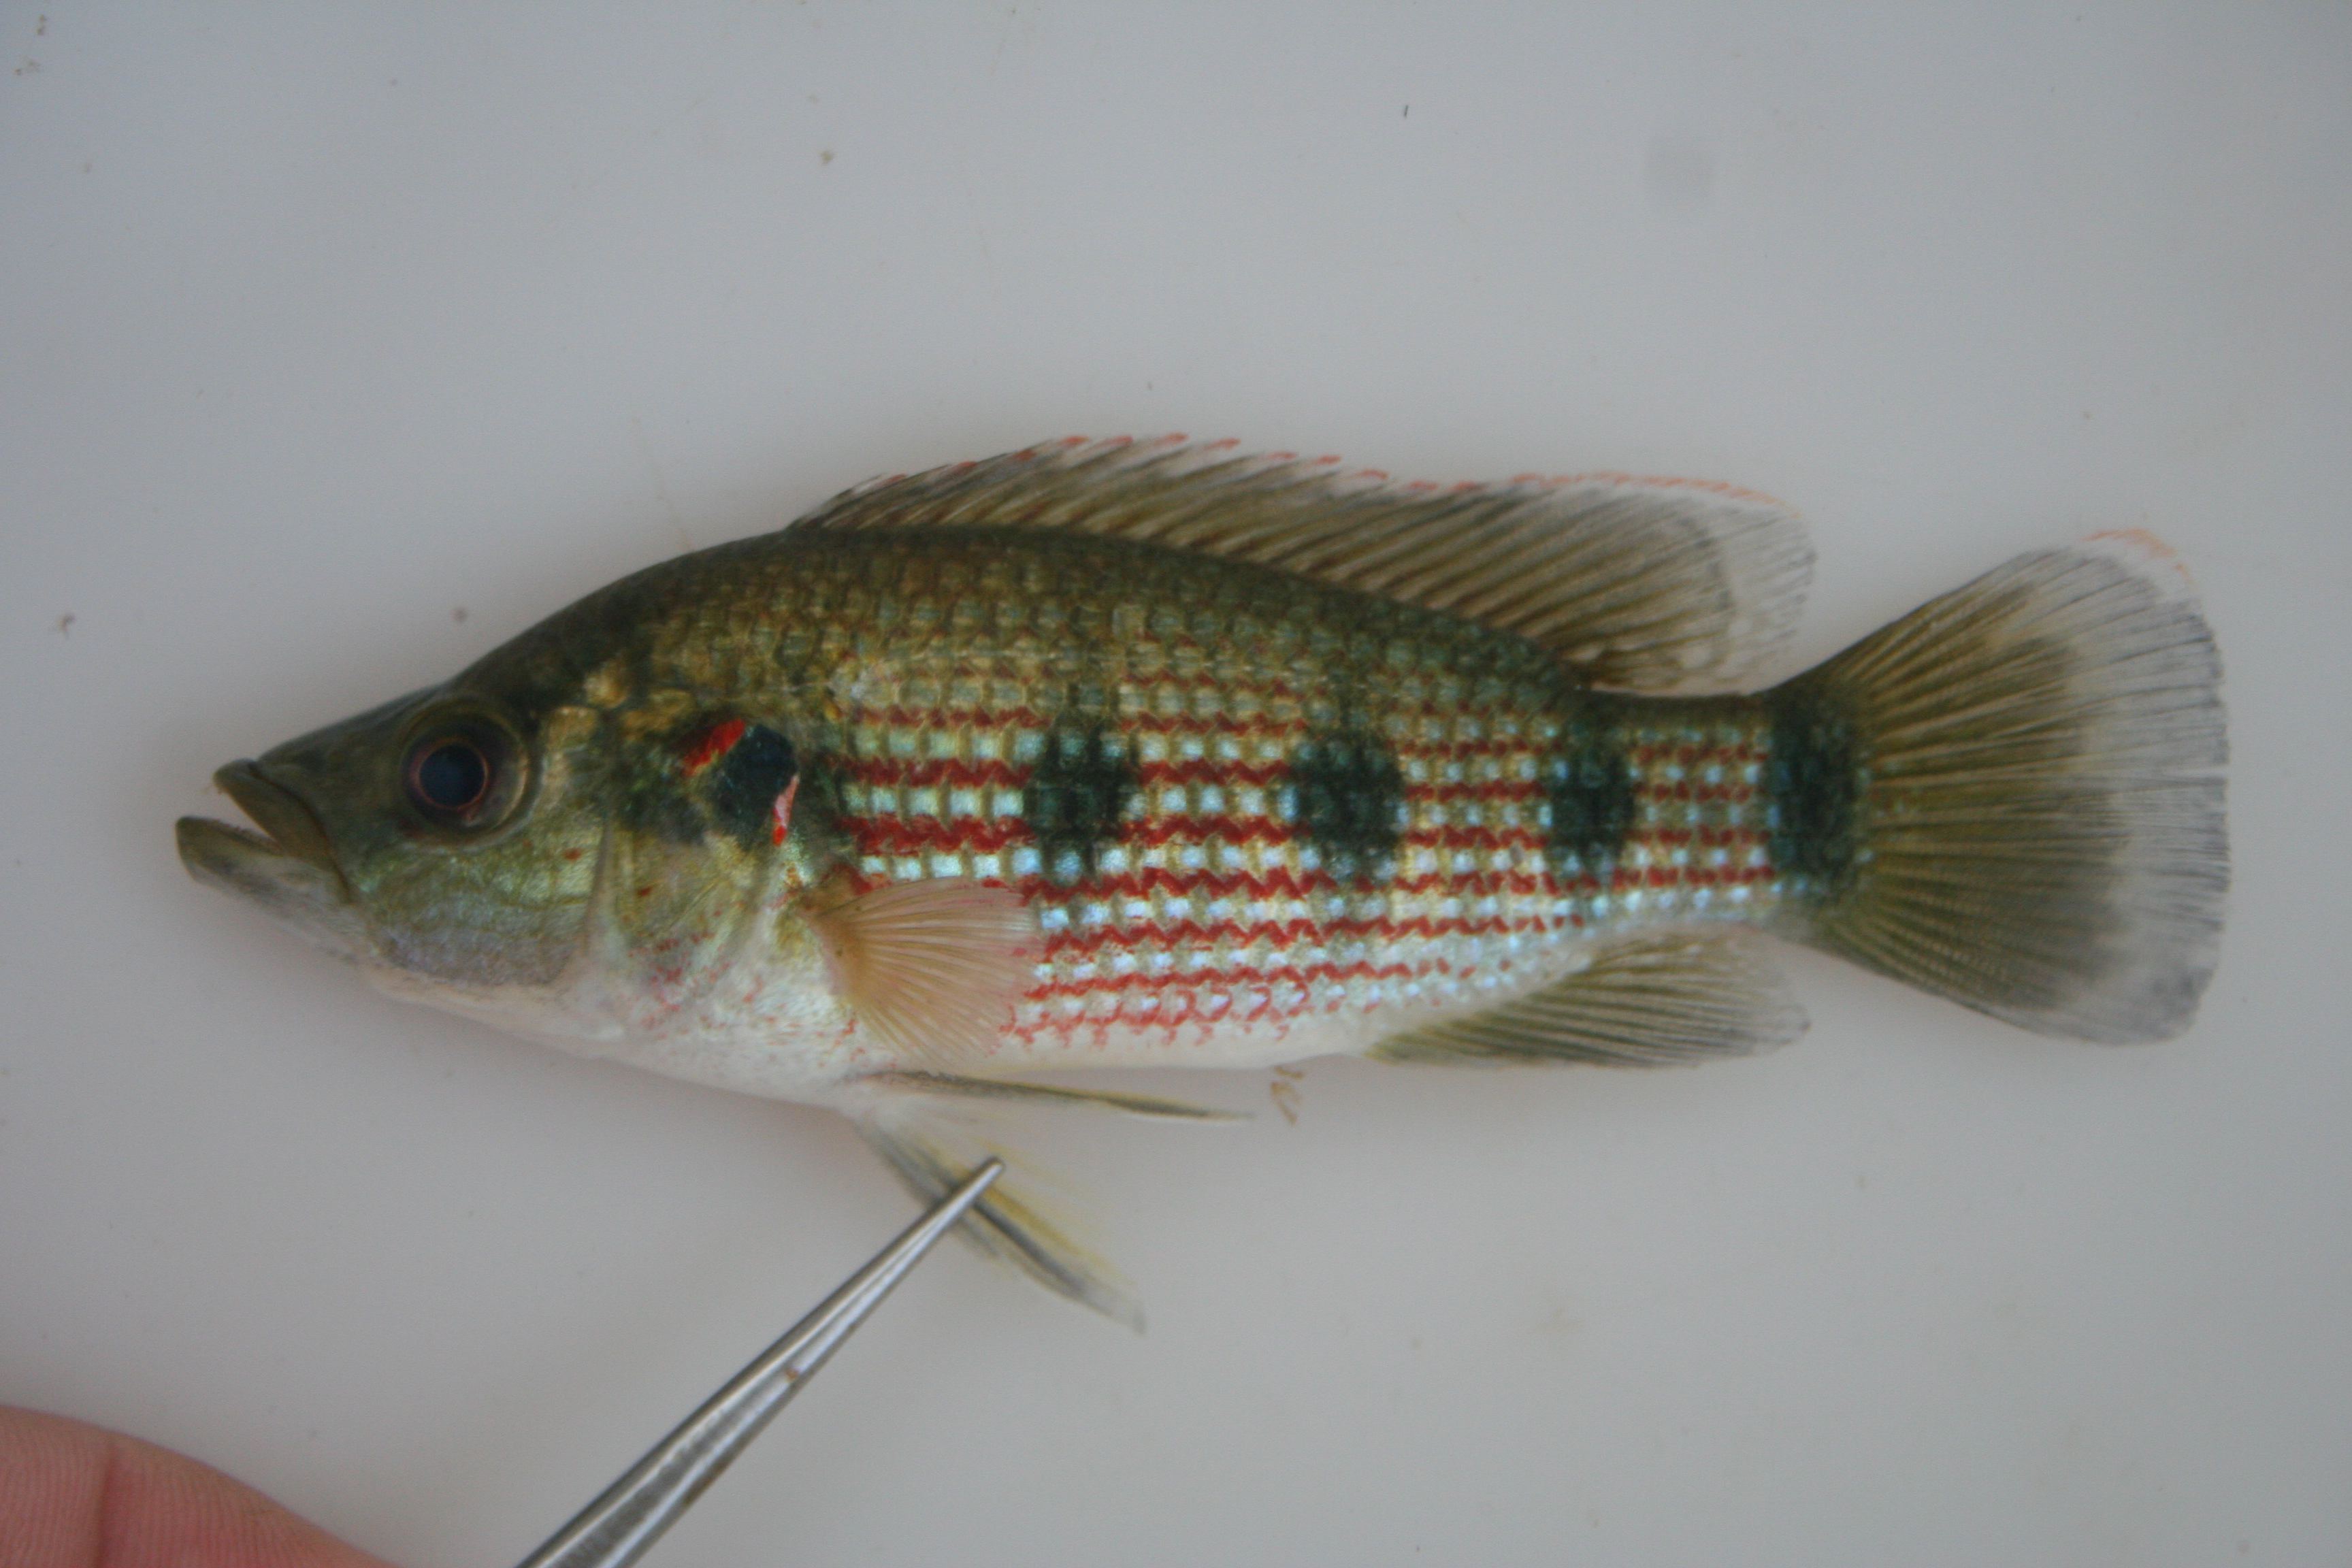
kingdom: Animalia
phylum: Chordata
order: Perciformes
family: Cichlidae
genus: Hemichromis
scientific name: Hemichromis angolensis
